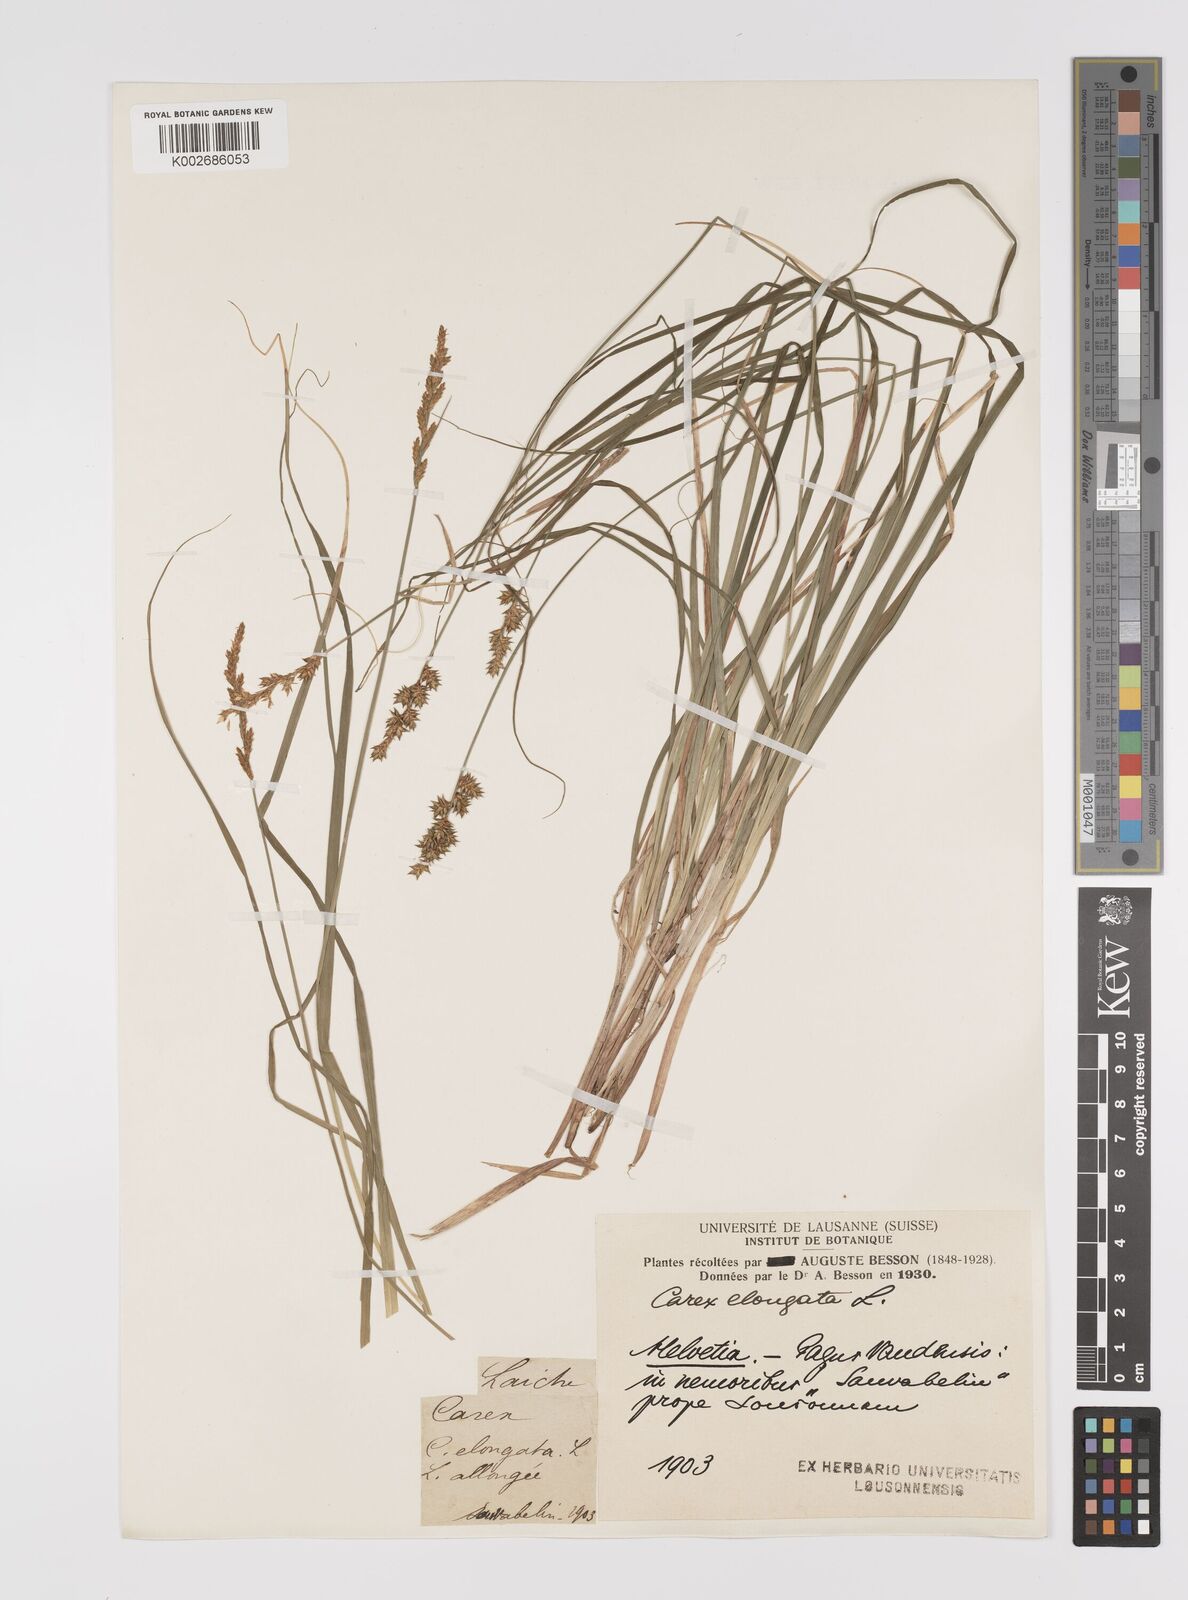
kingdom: Plantae
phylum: Tracheophyta
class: Liliopsida
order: Poales
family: Cyperaceae
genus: Carex
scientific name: Carex elongata
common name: Elongated sedge
